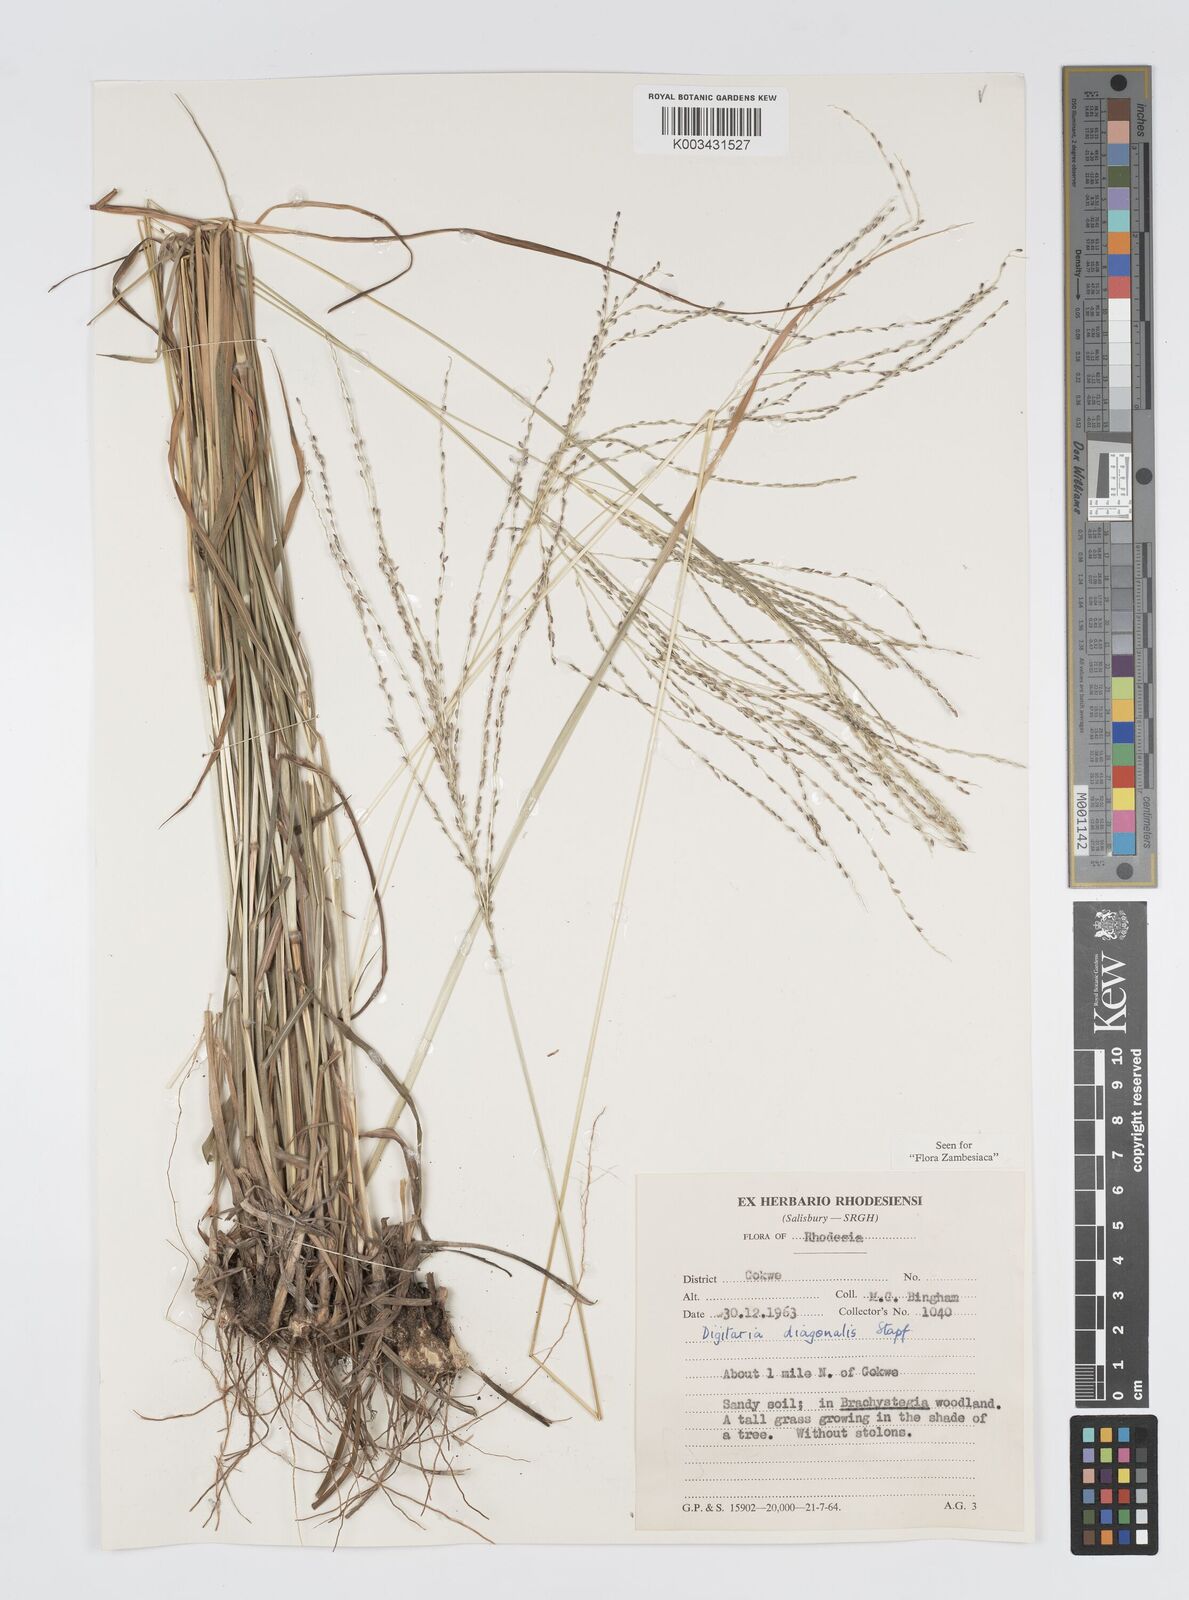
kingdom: Plantae
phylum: Tracheophyta
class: Liliopsida
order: Poales
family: Poaceae
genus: Digitaria
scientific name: Digitaria gazensis
